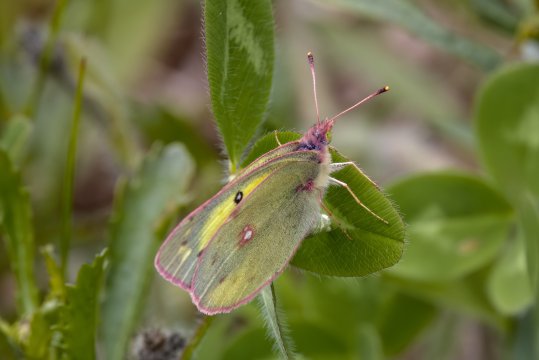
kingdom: Animalia
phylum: Arthropoda
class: Insecta
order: Lepidoptera
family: Pieridae
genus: Colias
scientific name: Colias philodice
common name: Clouded Sulphur
